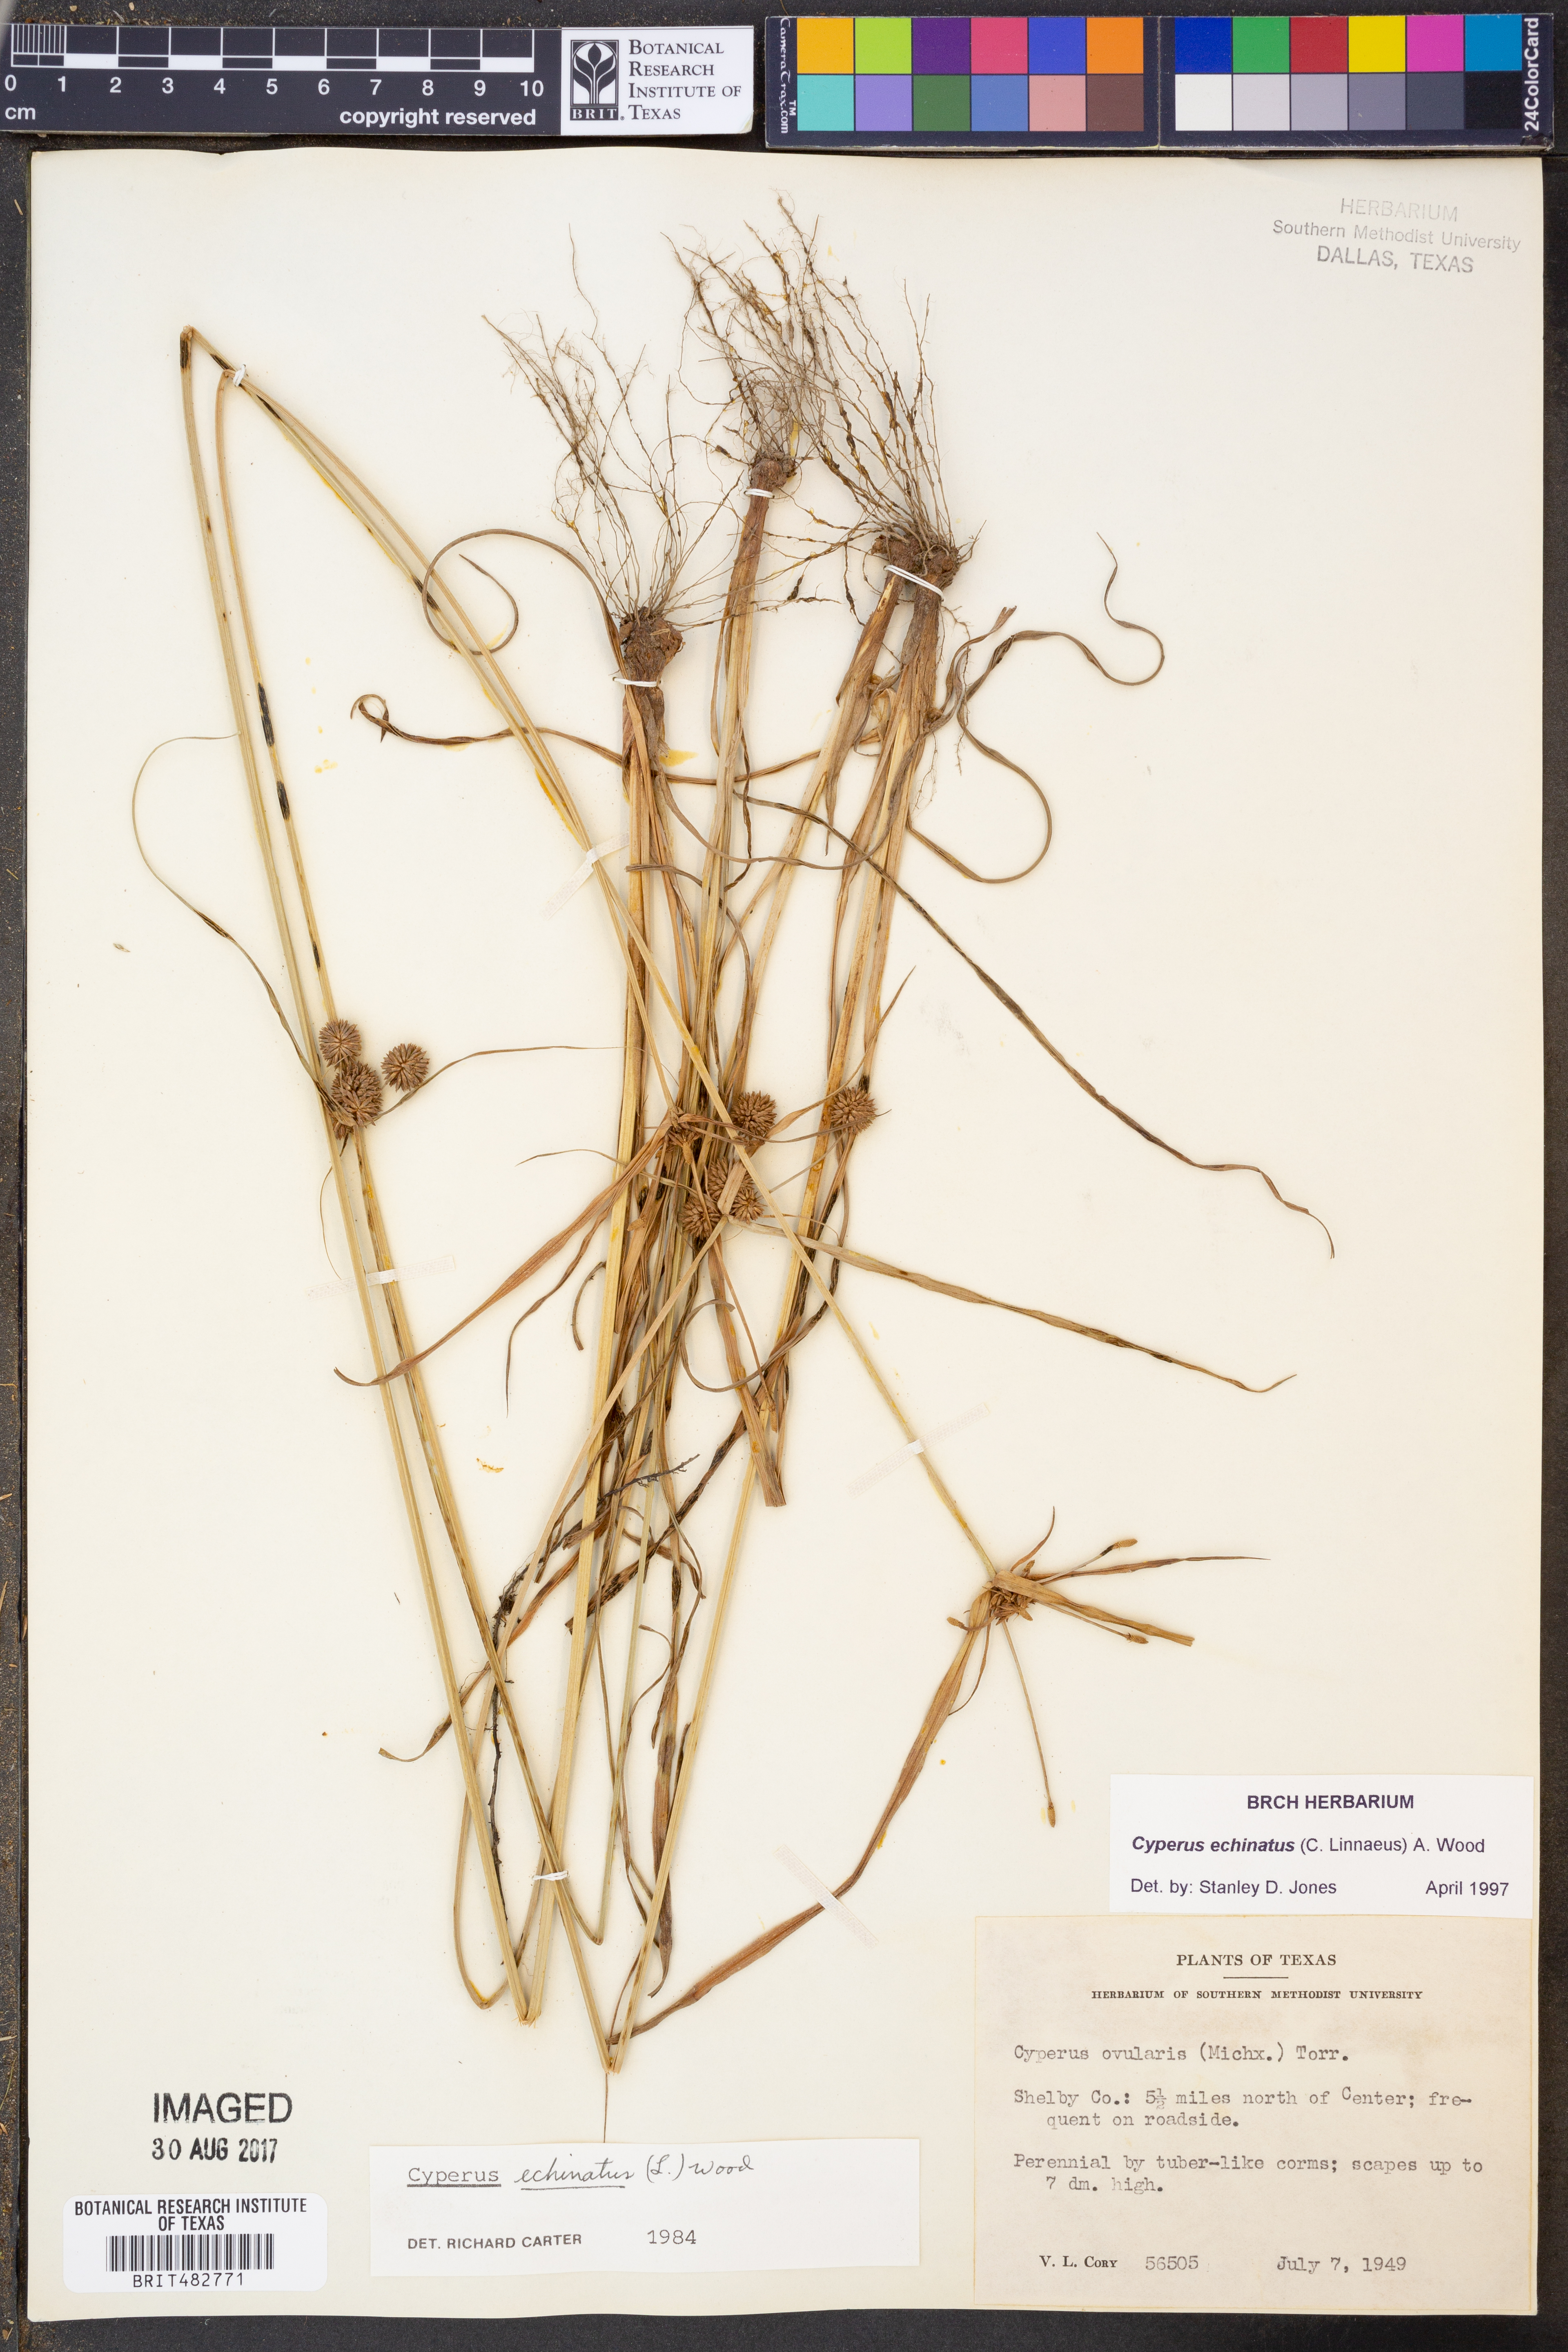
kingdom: Plantae
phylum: Tracheophyta
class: Liliopsida
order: Poales
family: Cyperaceae
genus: Cyperus
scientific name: Cyperus echinatus
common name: Teasel sedge
